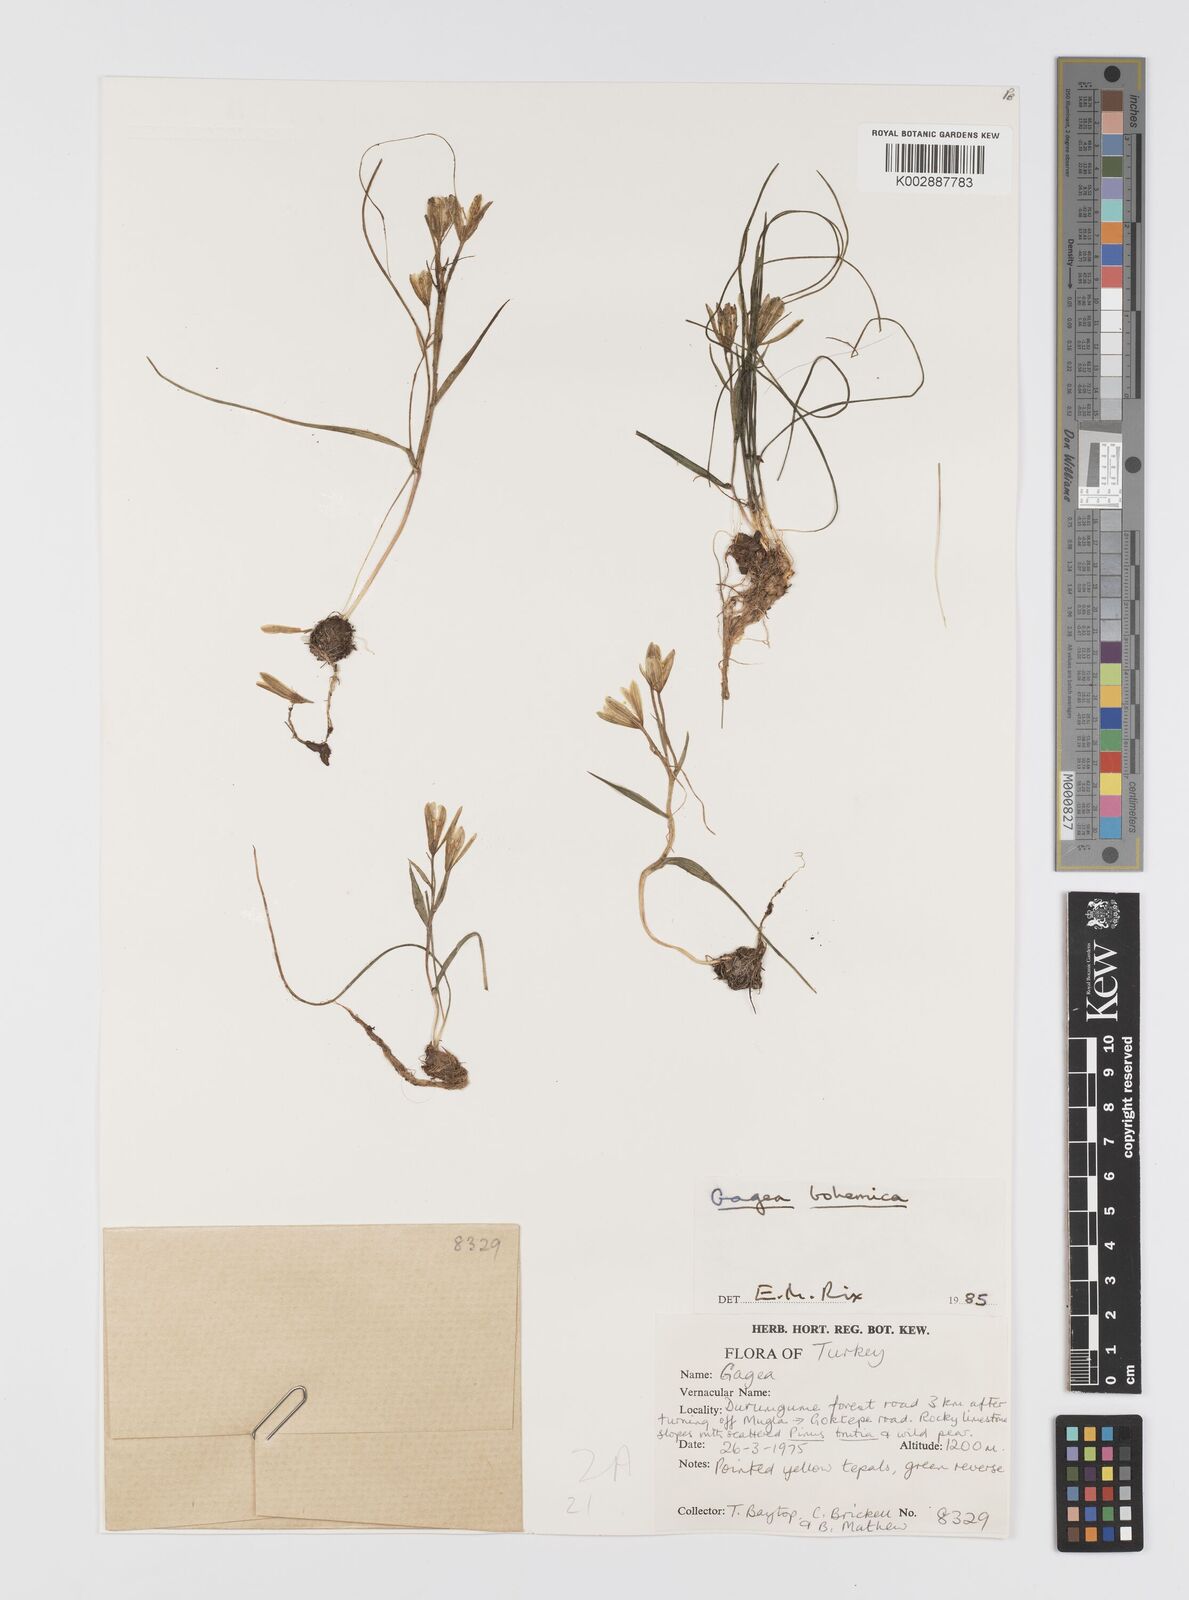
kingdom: Plantae
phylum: Tracheophyta
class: Liliopsida
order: Liliales
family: Liliaceae
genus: Gagea
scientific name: Gagea bohemica
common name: Early star-of-bethlehem
